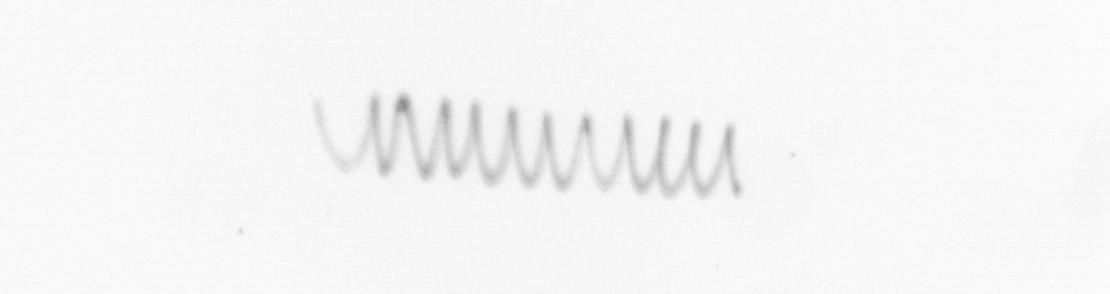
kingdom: Chromista
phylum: Ochrophyta
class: Bacillariophyceae
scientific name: Bacillariophyceae
